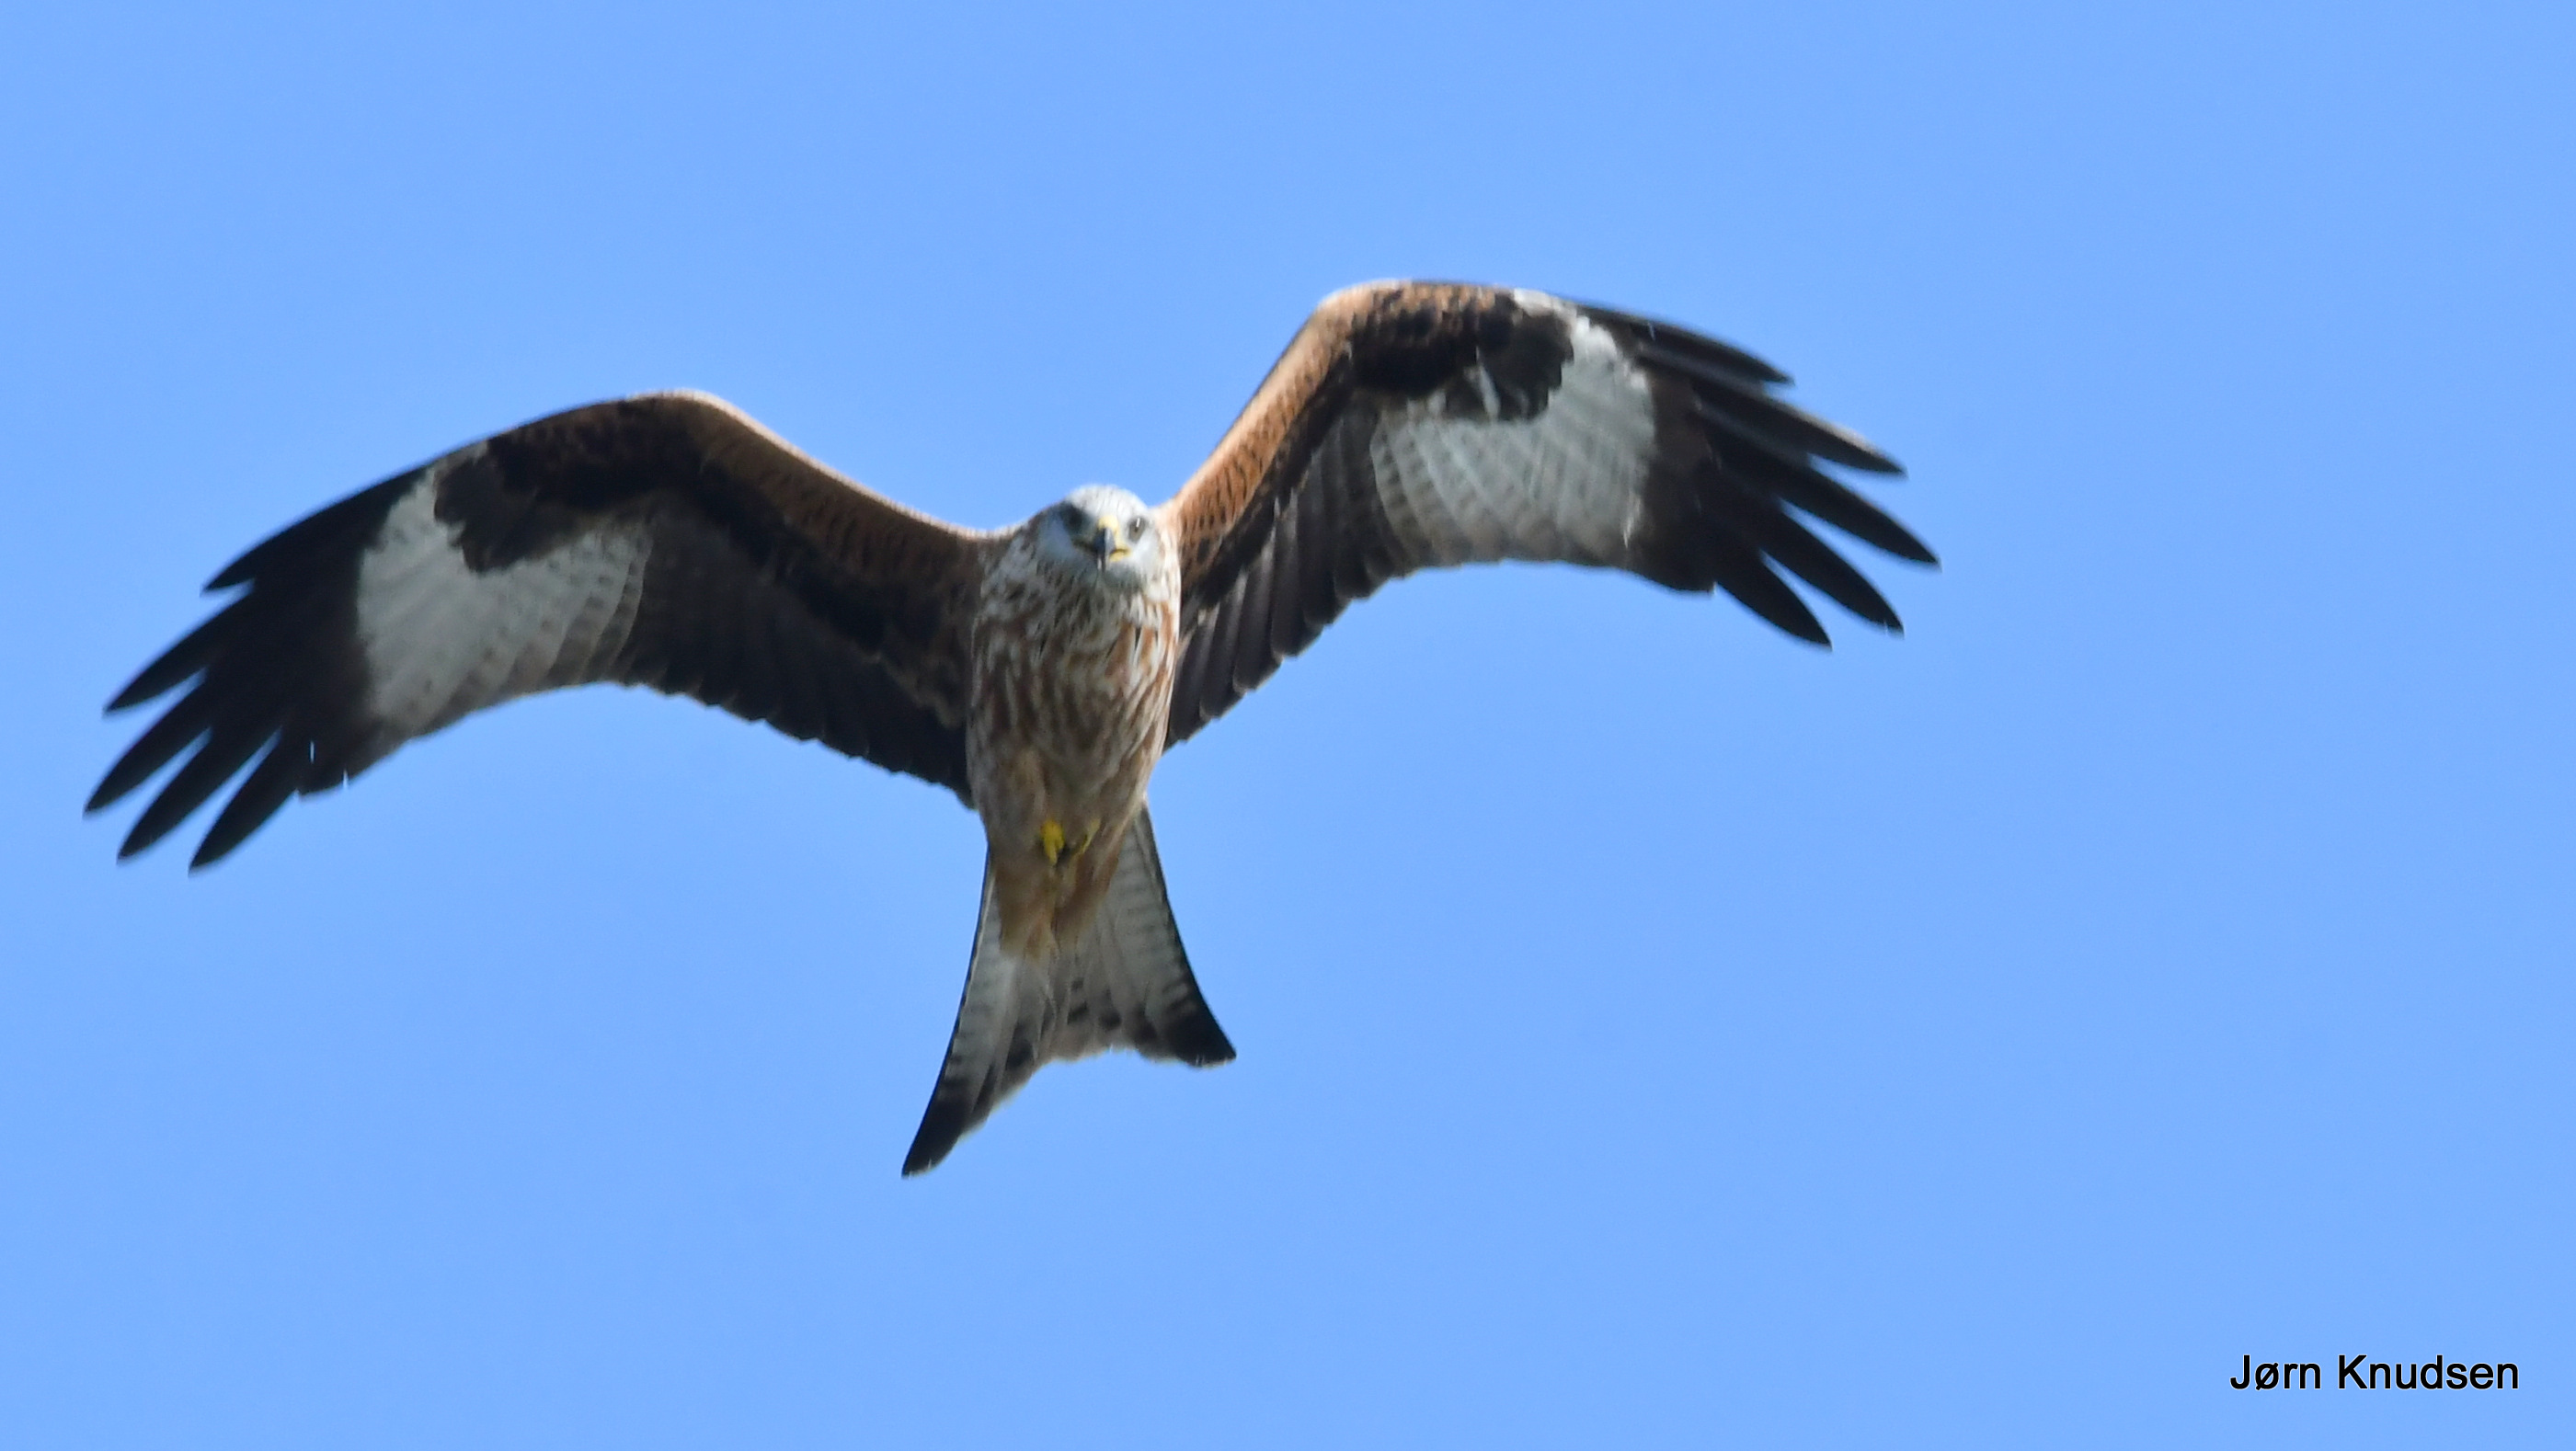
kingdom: Animalia
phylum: Chordata
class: Aves
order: Accipitriformes
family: Accipitridae
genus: Milvus
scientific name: Milvus milvus
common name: Rød glente
